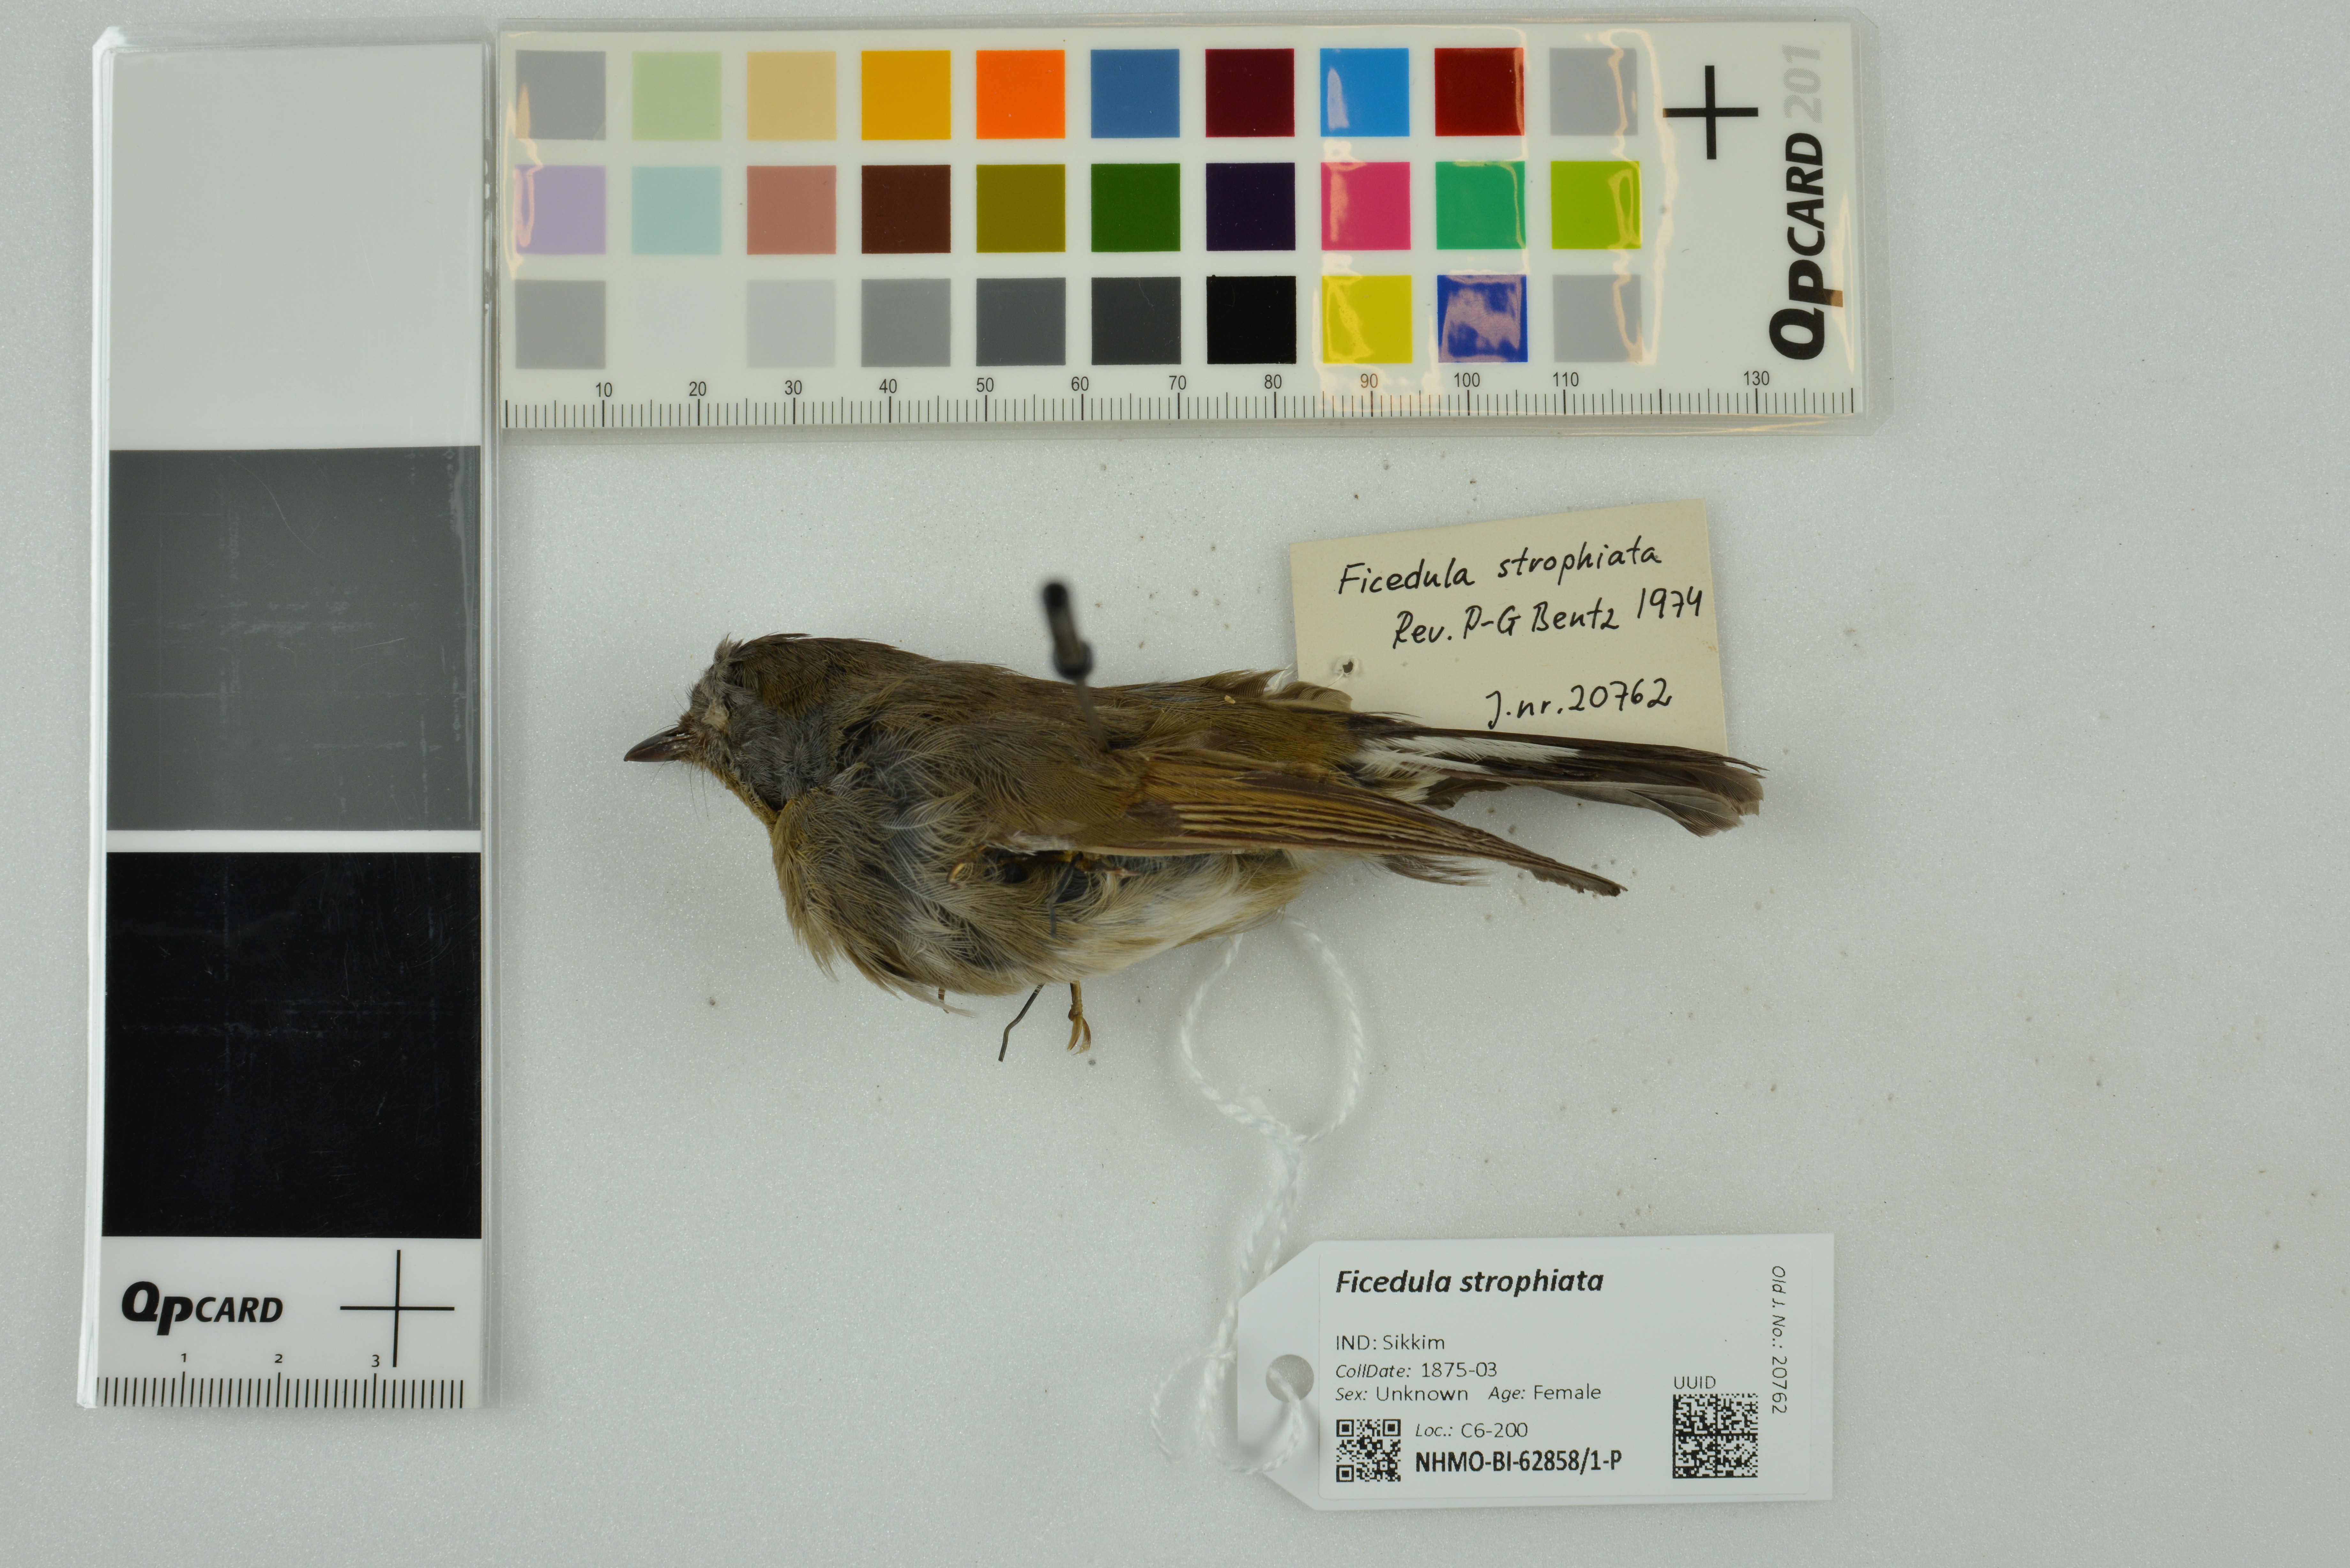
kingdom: Animalia
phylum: Chordata
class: Aves
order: Passeriformes
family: Muscicapidae
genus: Ficedula
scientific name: Ficedula strophiata
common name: Rufous-gorgeted flycatcher
